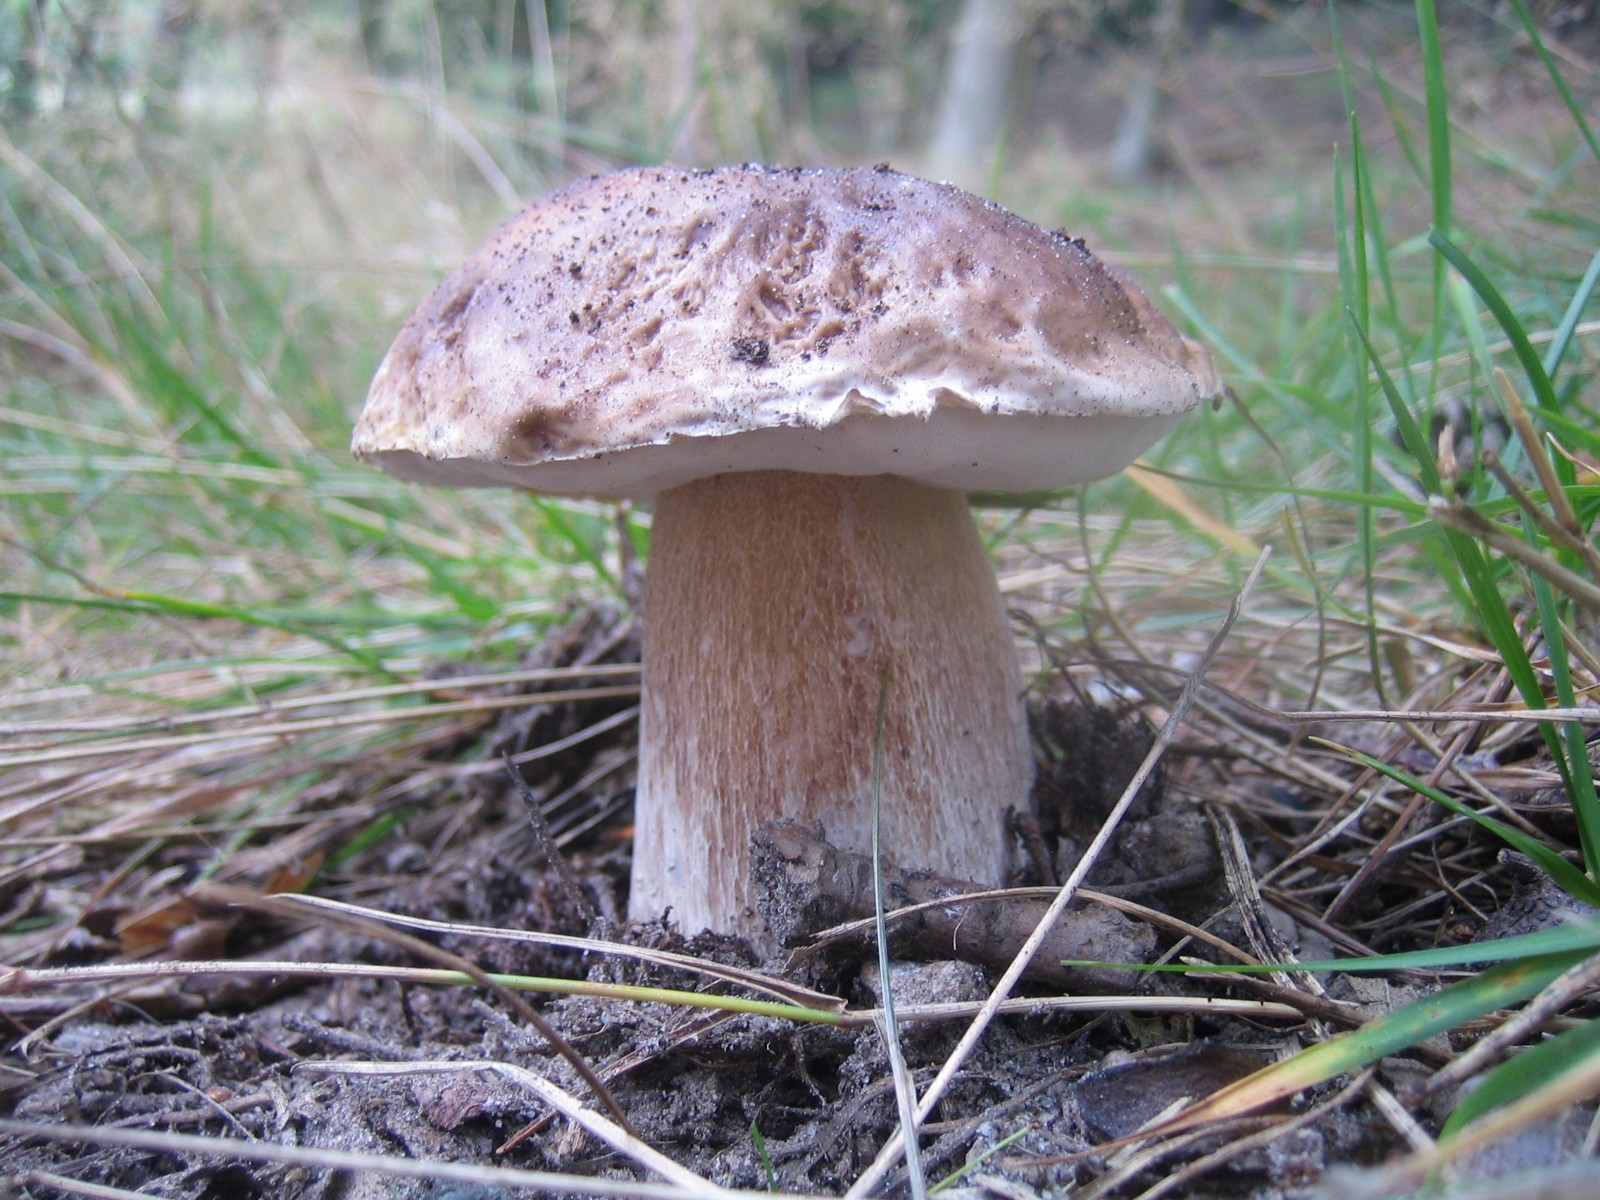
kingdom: Fungi
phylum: Basidiomycota
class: Agaricomycetes
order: Boletales
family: Boletaceae
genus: Boletus
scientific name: Boletus edulis
